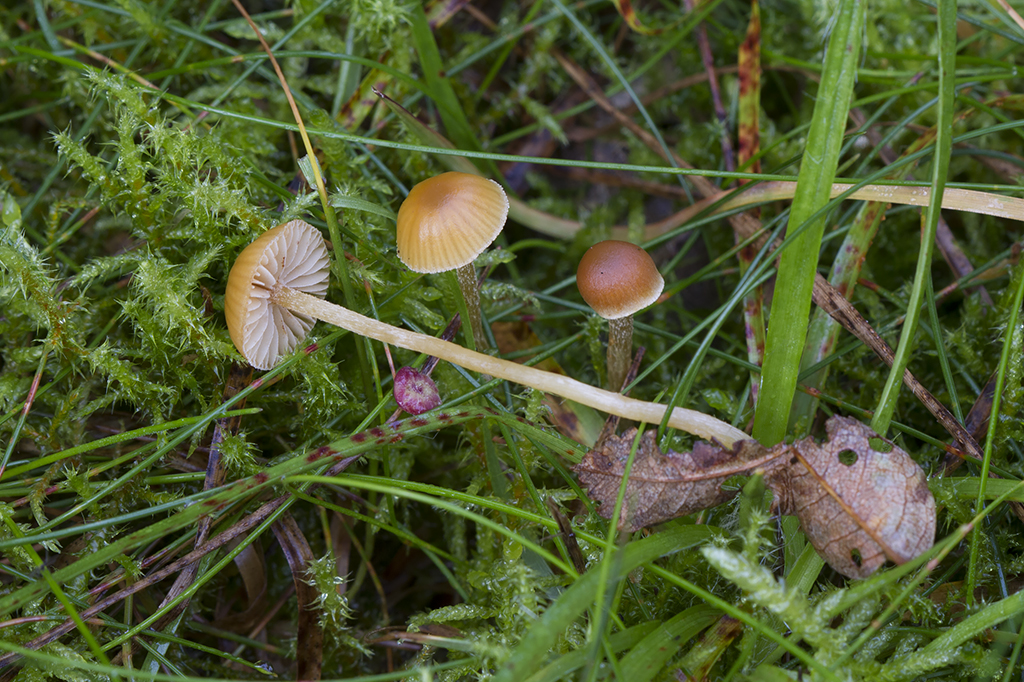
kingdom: Fungi
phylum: Basidiomycota
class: Agaricomycetes
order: Agaricales
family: Hymenogastraceae
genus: Galerina
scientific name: Galerina pumila
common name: honninggul hjelmhat
